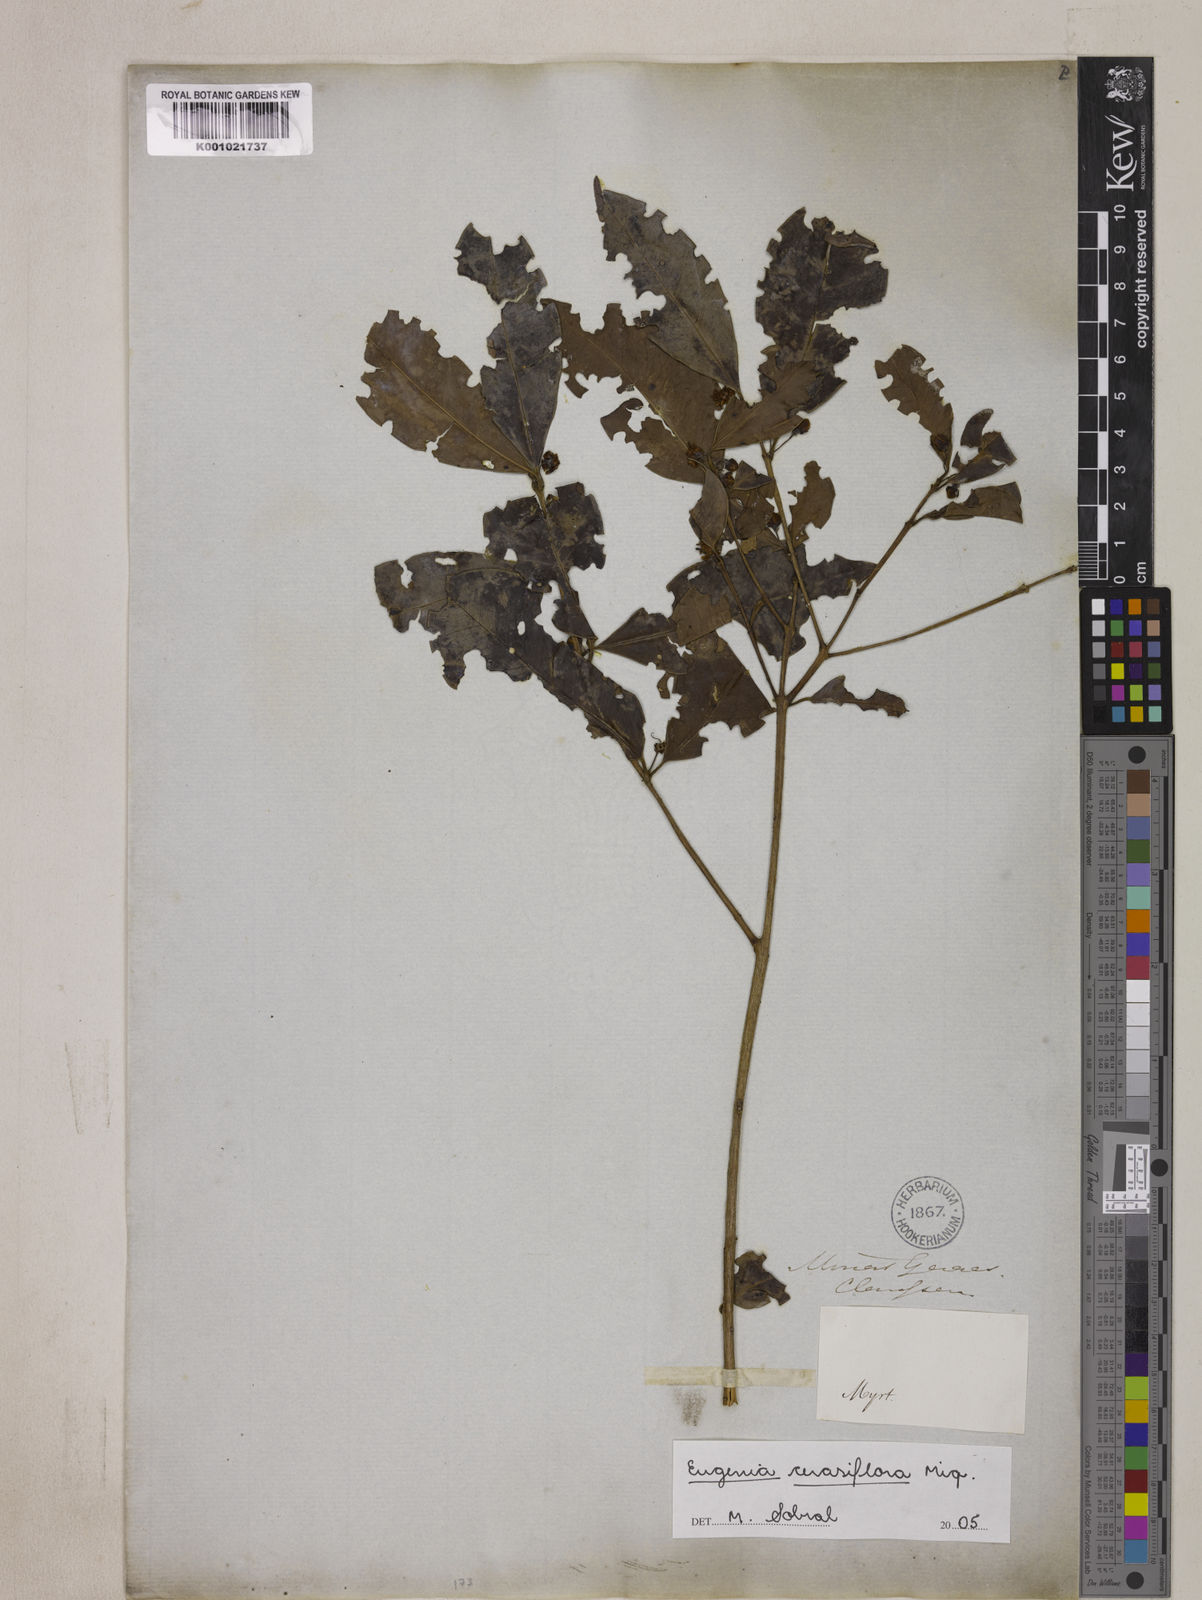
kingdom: Plantae
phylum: Tracheophyta
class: Magnoliopsida
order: Myrtales
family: Myrtaceae
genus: Eugenia
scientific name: Eugenia cerasiflora
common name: Cherry-of-the-rio-grande
